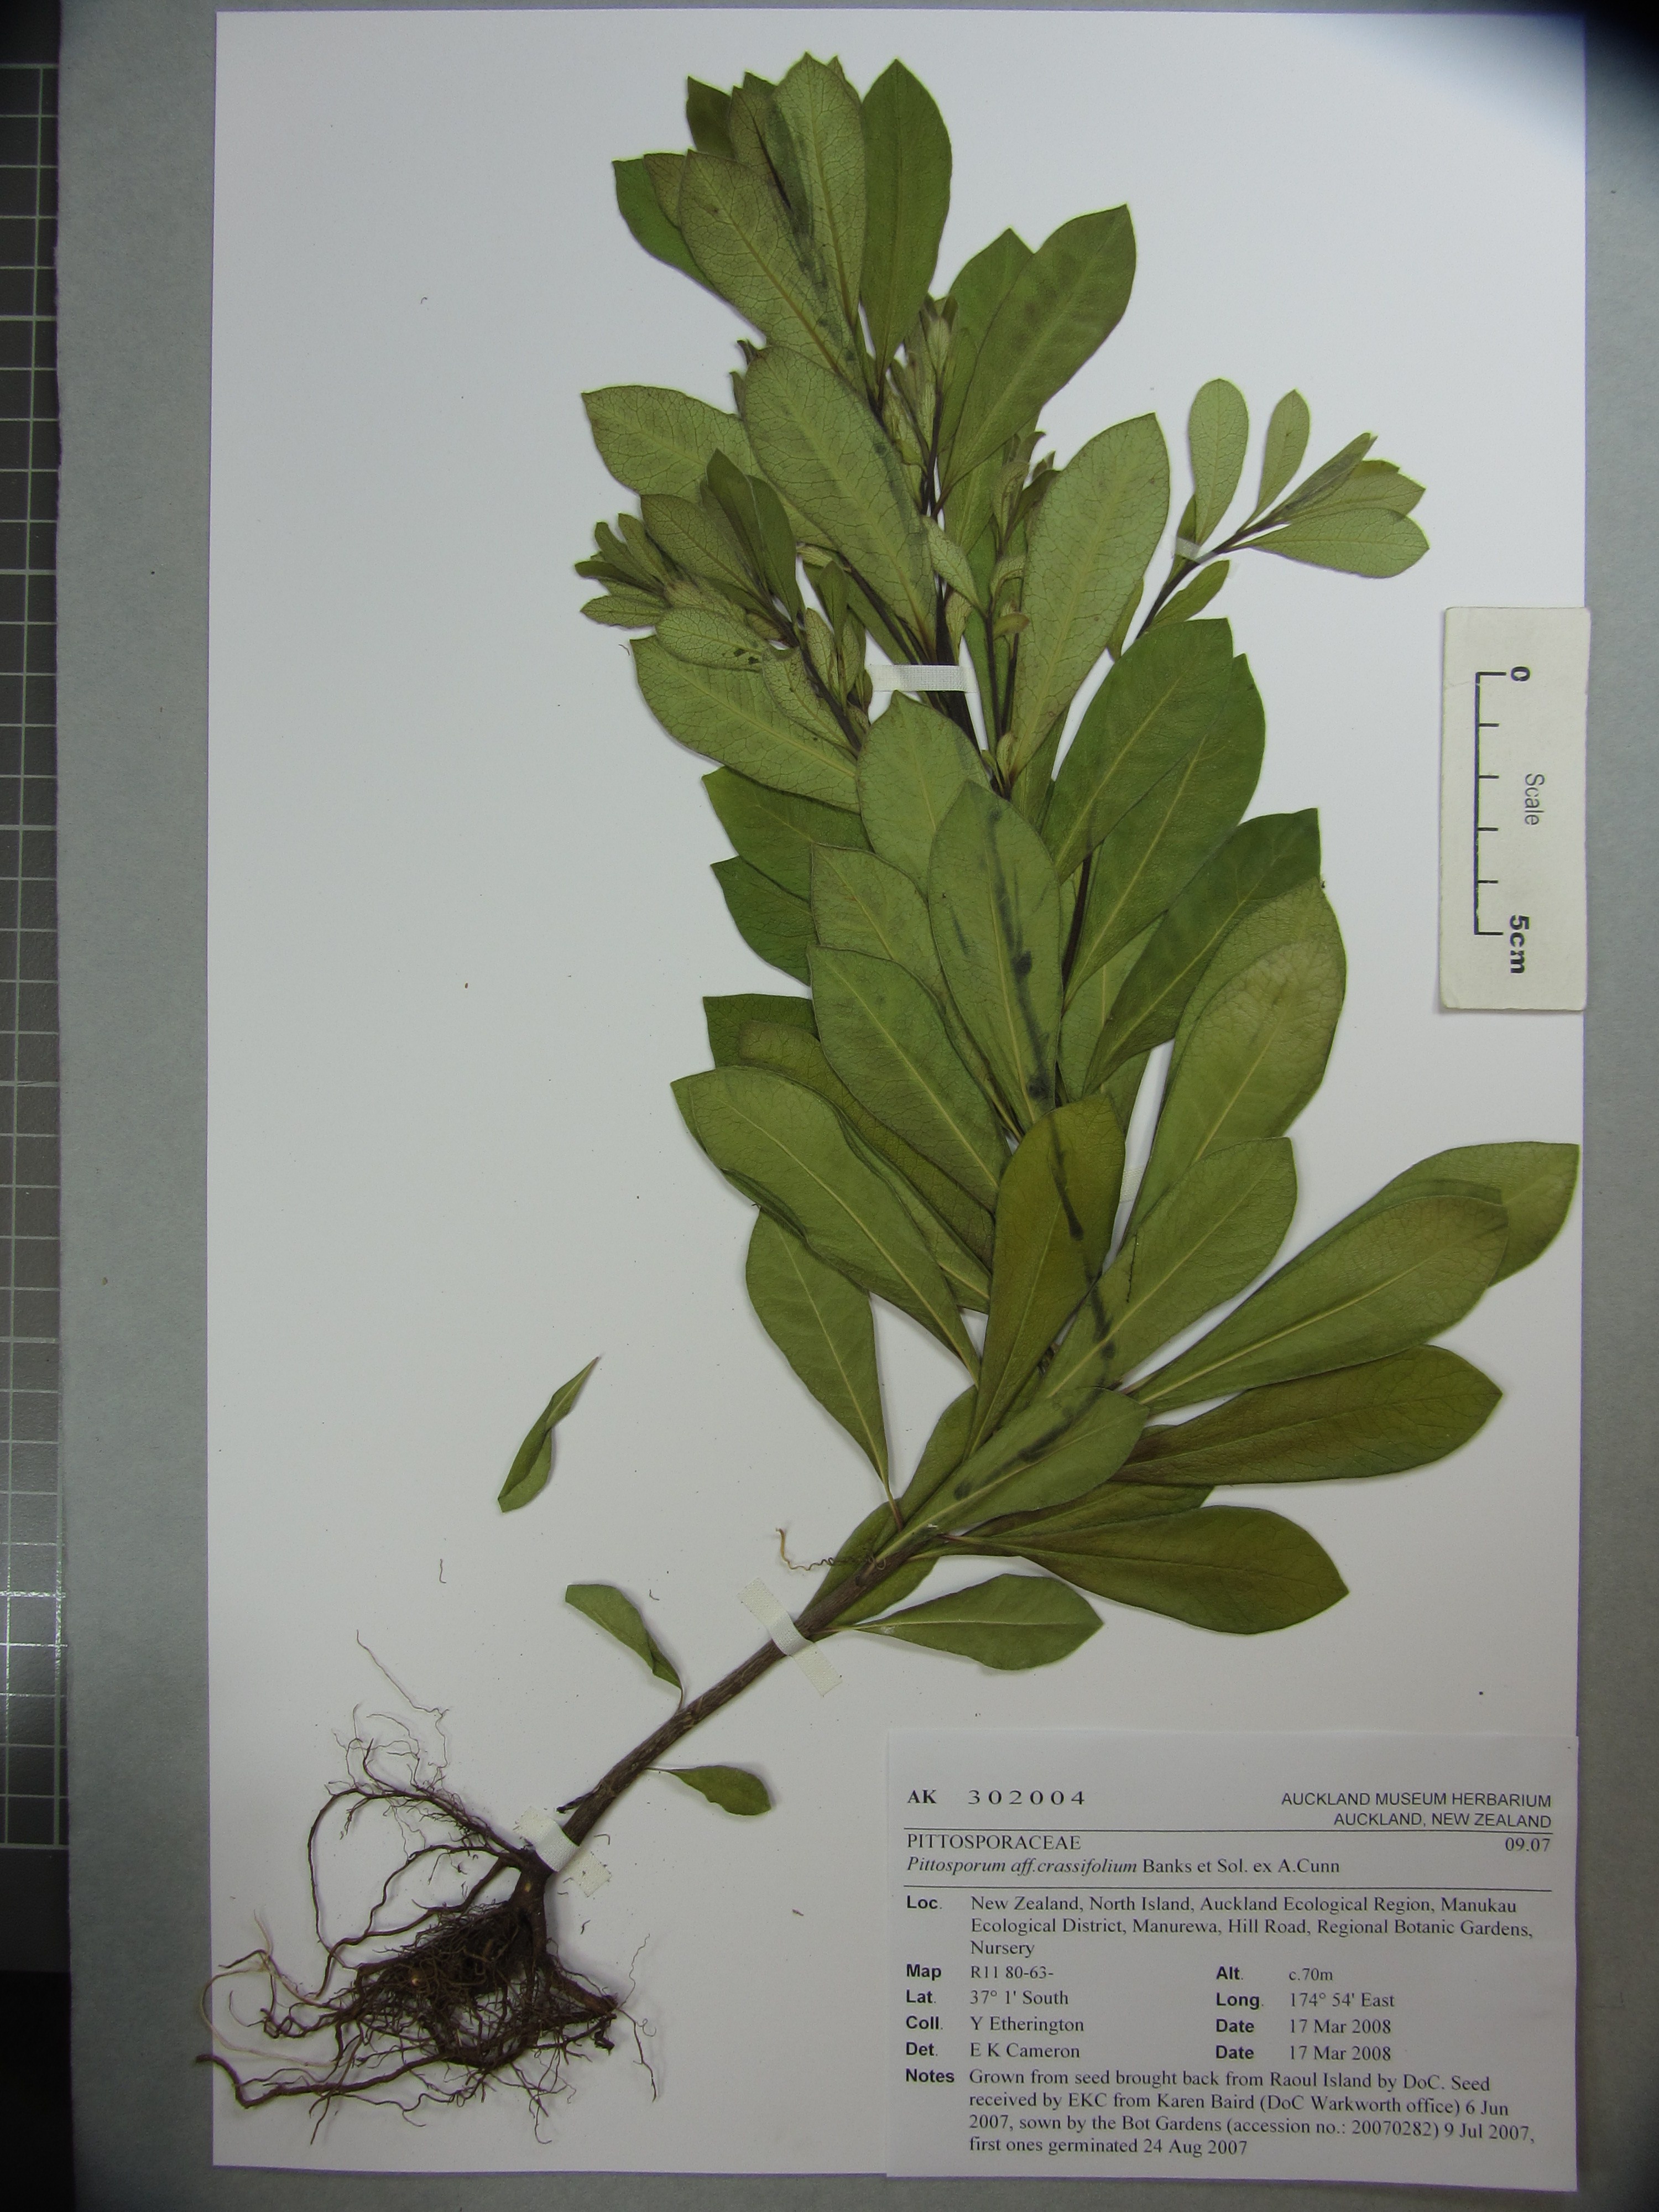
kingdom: Plantae
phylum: Tracheophyta
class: Magnoliopsida
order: Apiales
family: Pittosporaceae
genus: Pittosporum
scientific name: Pittosporum rangitahua
